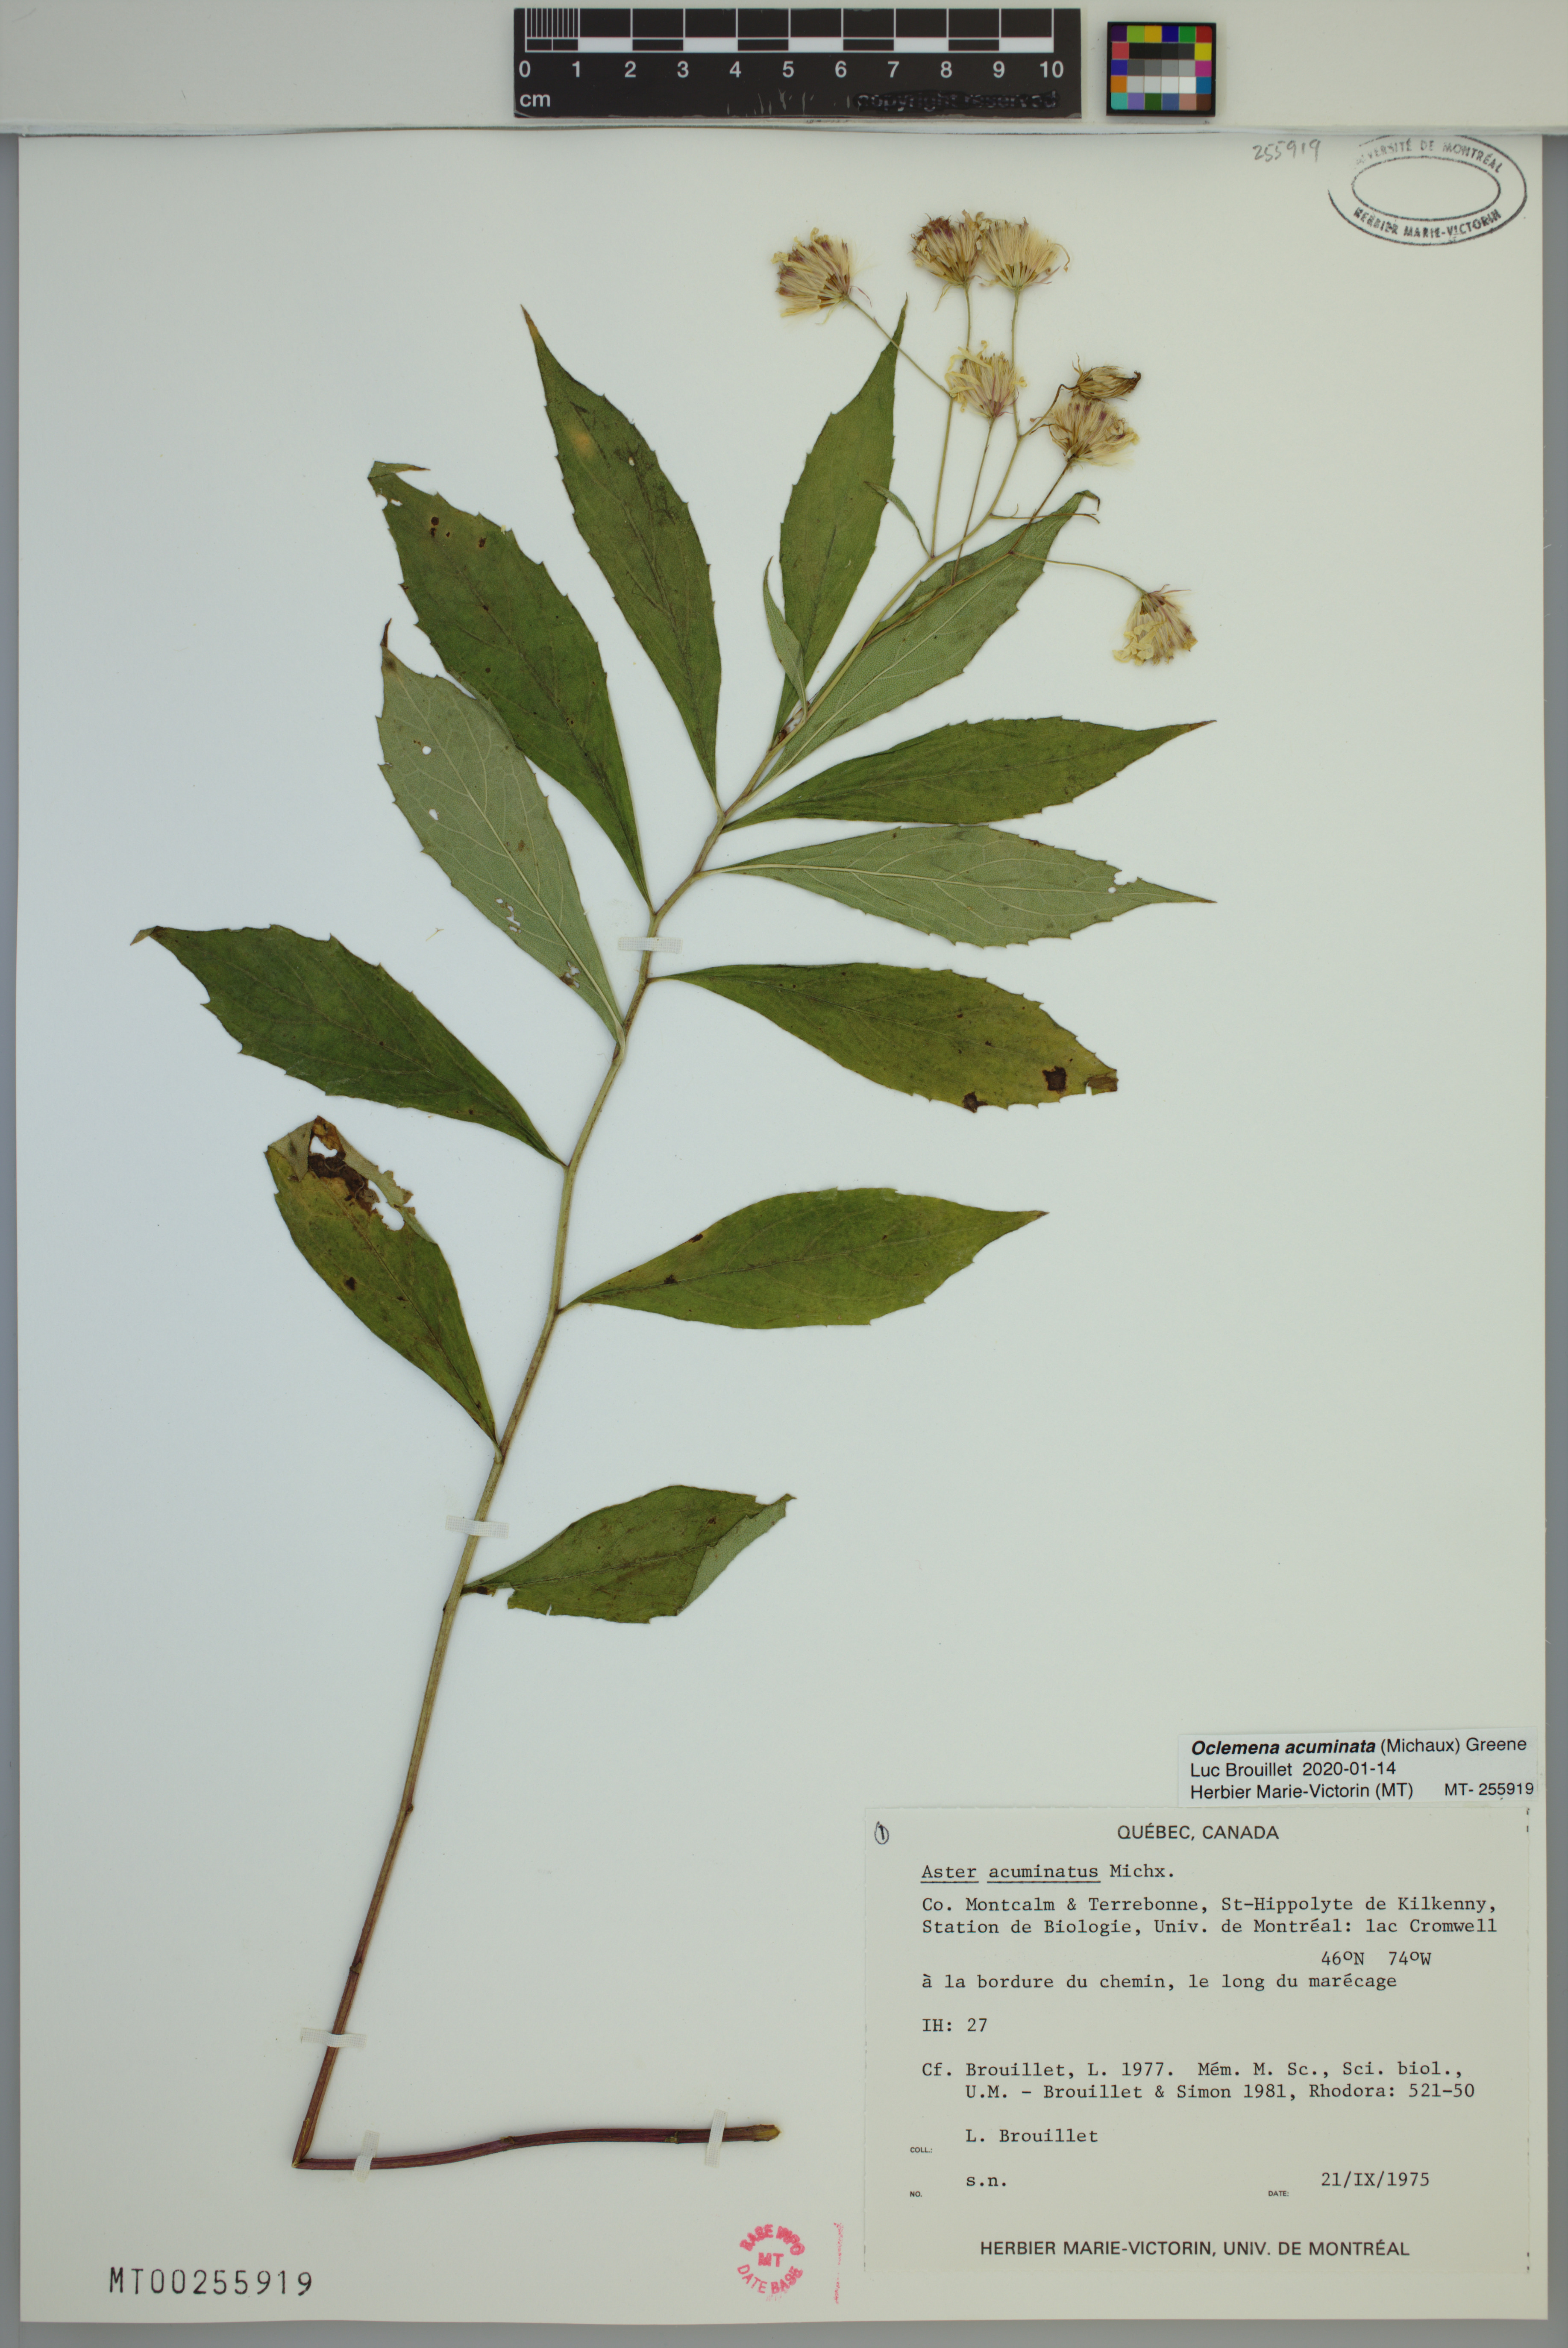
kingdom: Plantae
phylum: Tracheophyta
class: Magnoliopsida
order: Asterales
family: Asteraceae
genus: Oclemena
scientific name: Oclemena acuminata
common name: Mountain aster
